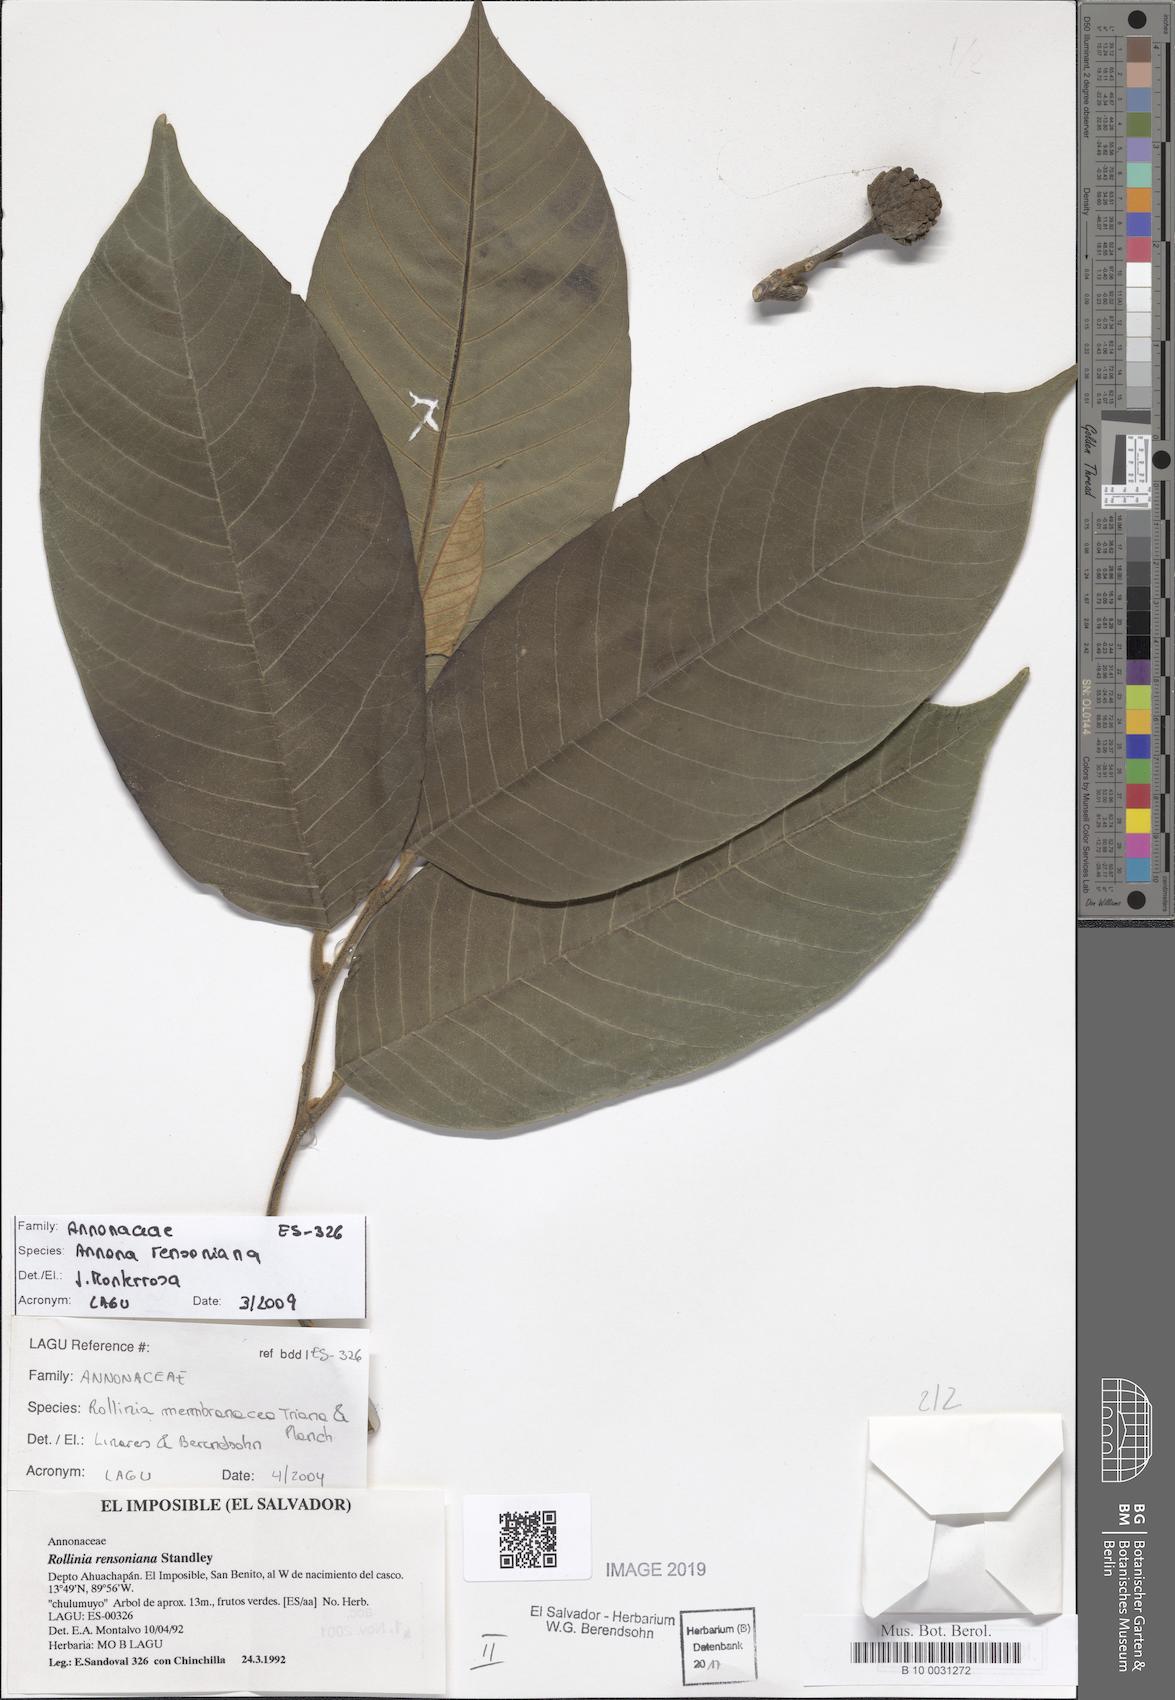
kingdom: Plantae
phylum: Tracheophyta
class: Magnoliopsida
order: Magnoliales
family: Annonaceae
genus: Annona
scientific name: Annona rensoniana
